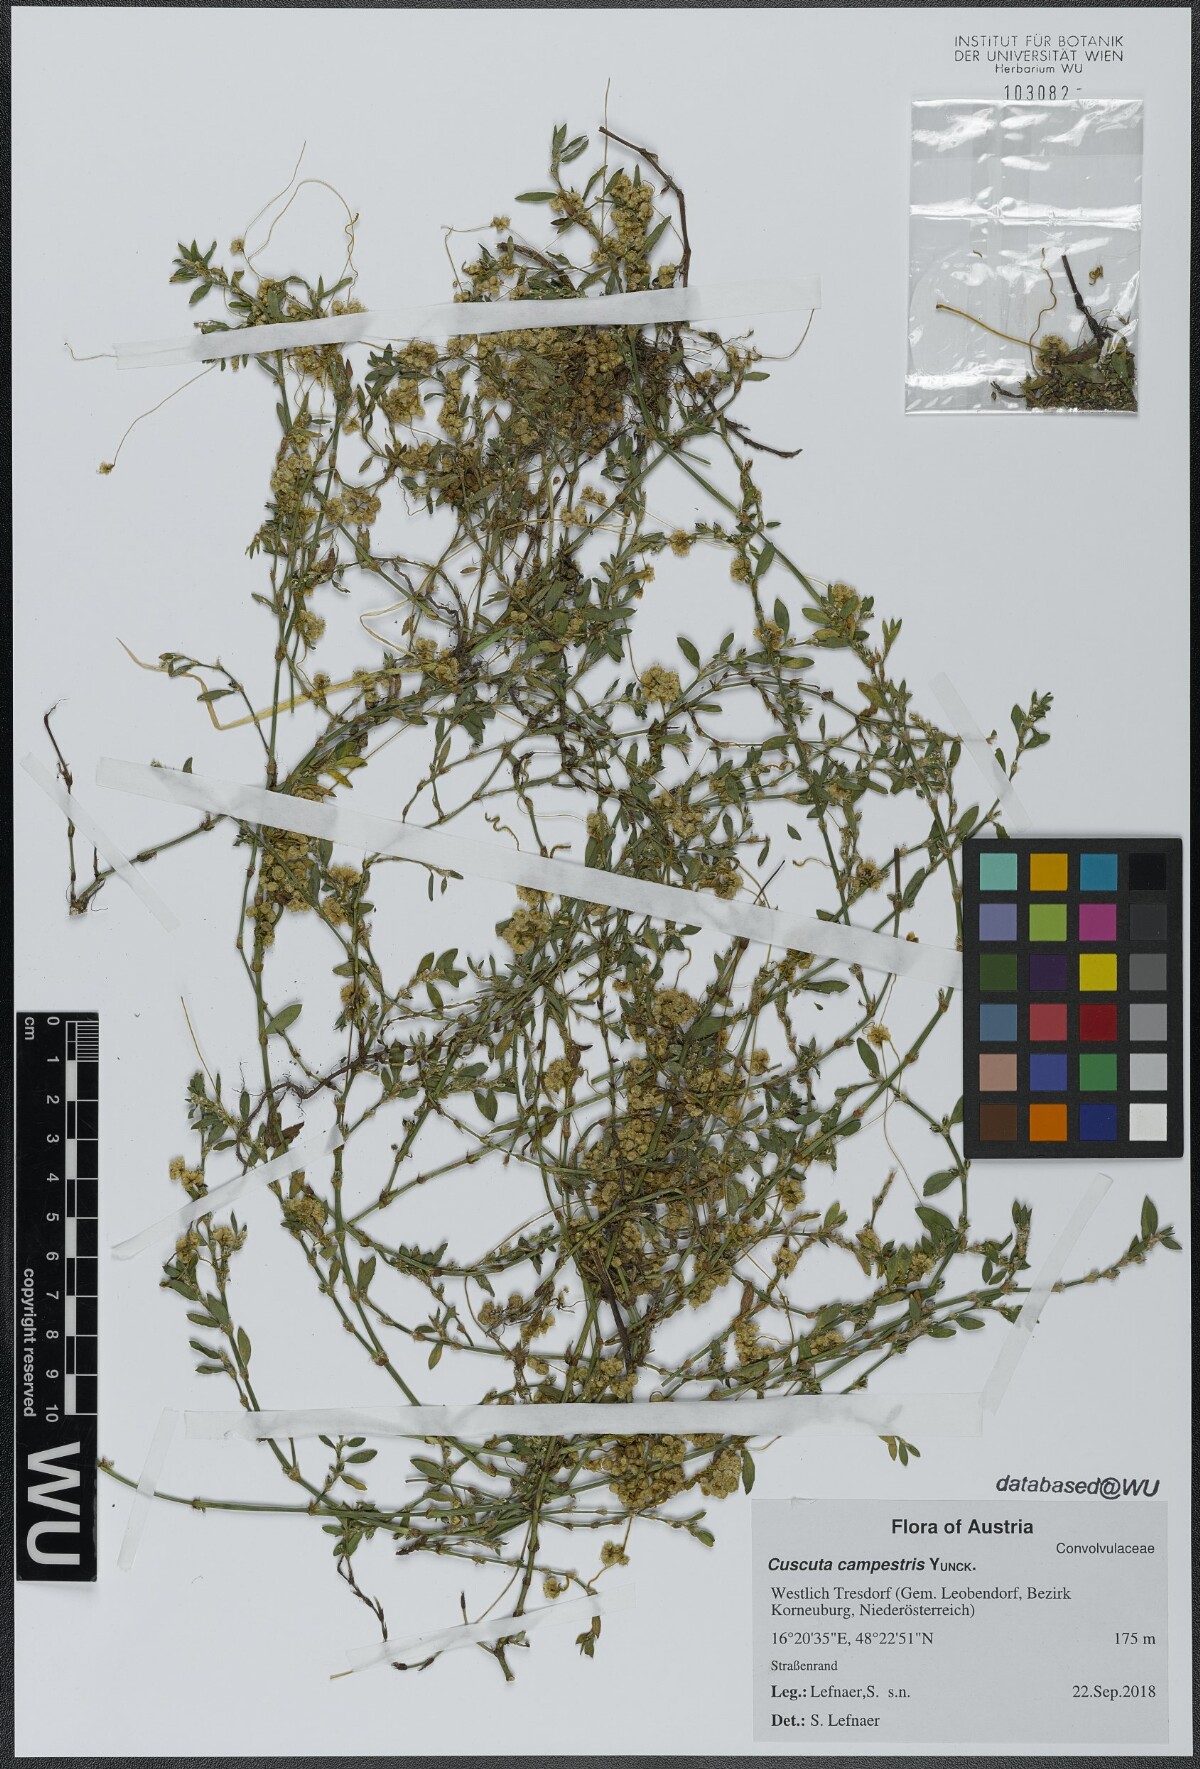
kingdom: Plantae
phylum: Tracheophyta
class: Magnoliopsida
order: Solanales
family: Convolvulaceae
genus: Cuscuta
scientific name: Cuscuta campestris
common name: Yellow dodder
